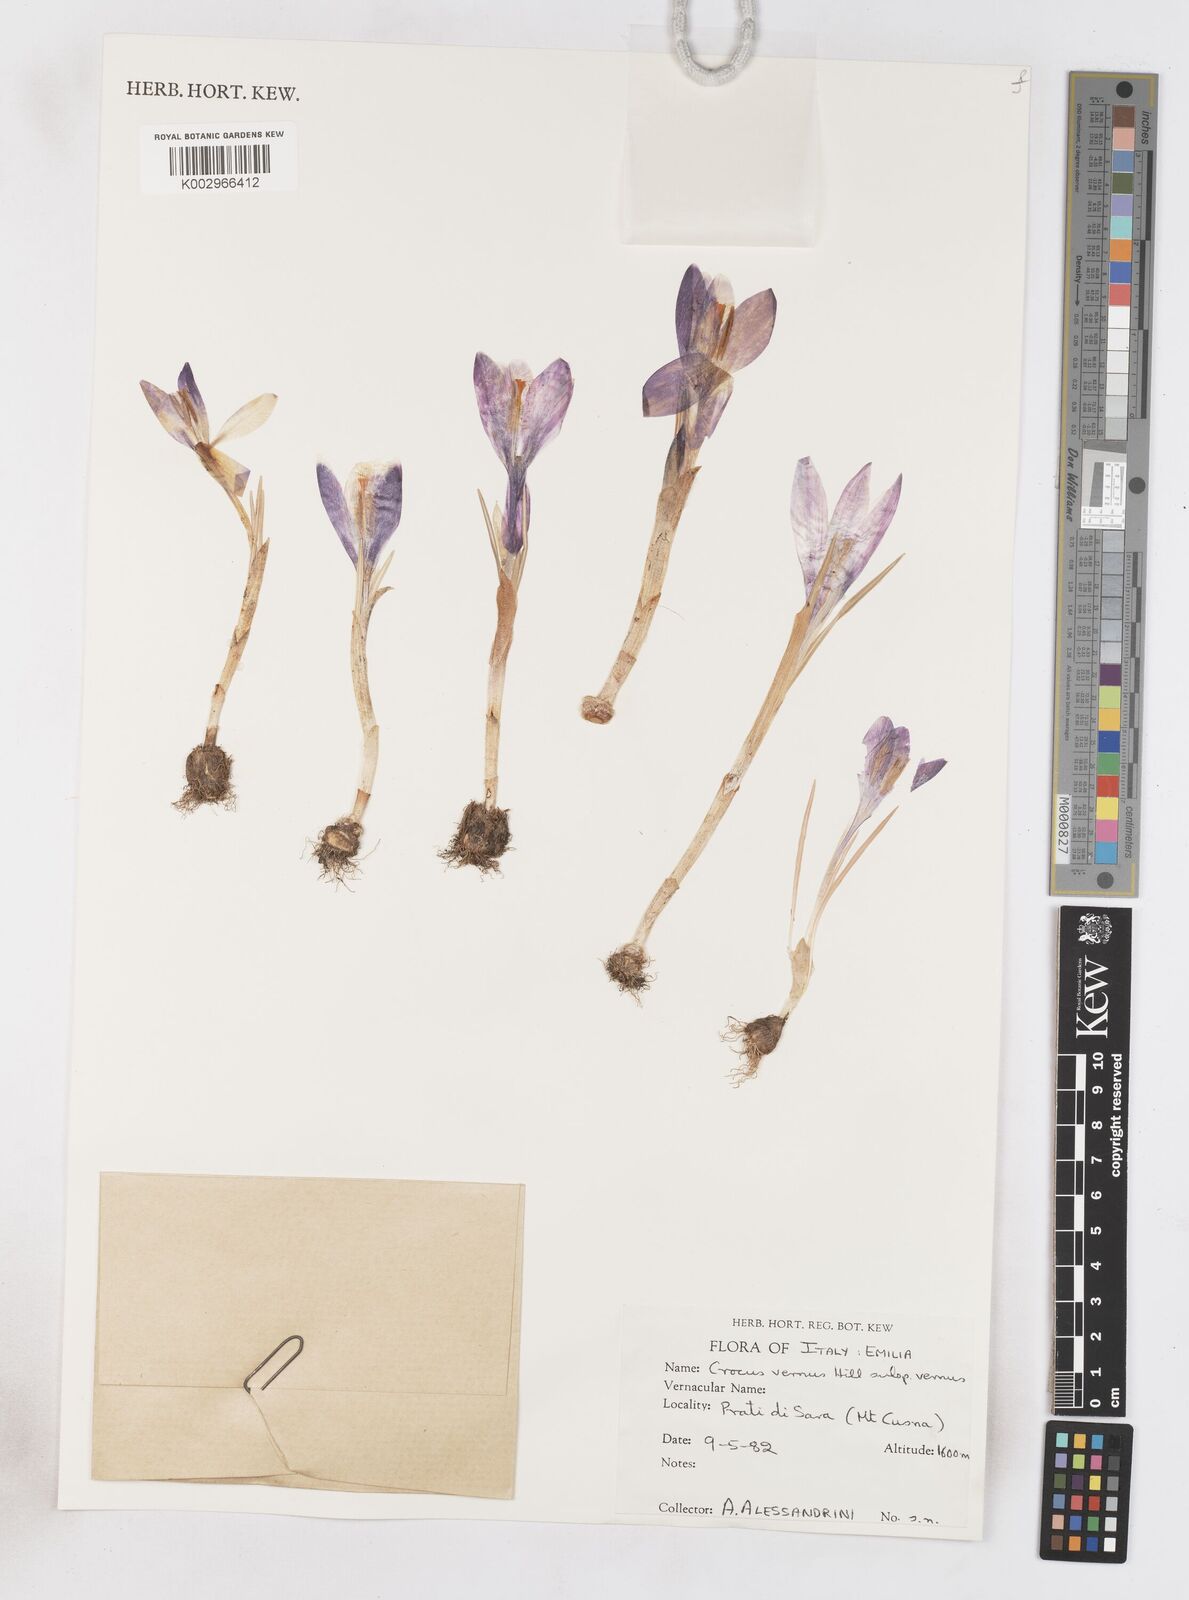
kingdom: Plantae
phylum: Tracheophyta
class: Liliopsida
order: Asparagales
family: Iridaceae
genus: Crocus
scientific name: Crocus vernus
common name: Spring crocus
